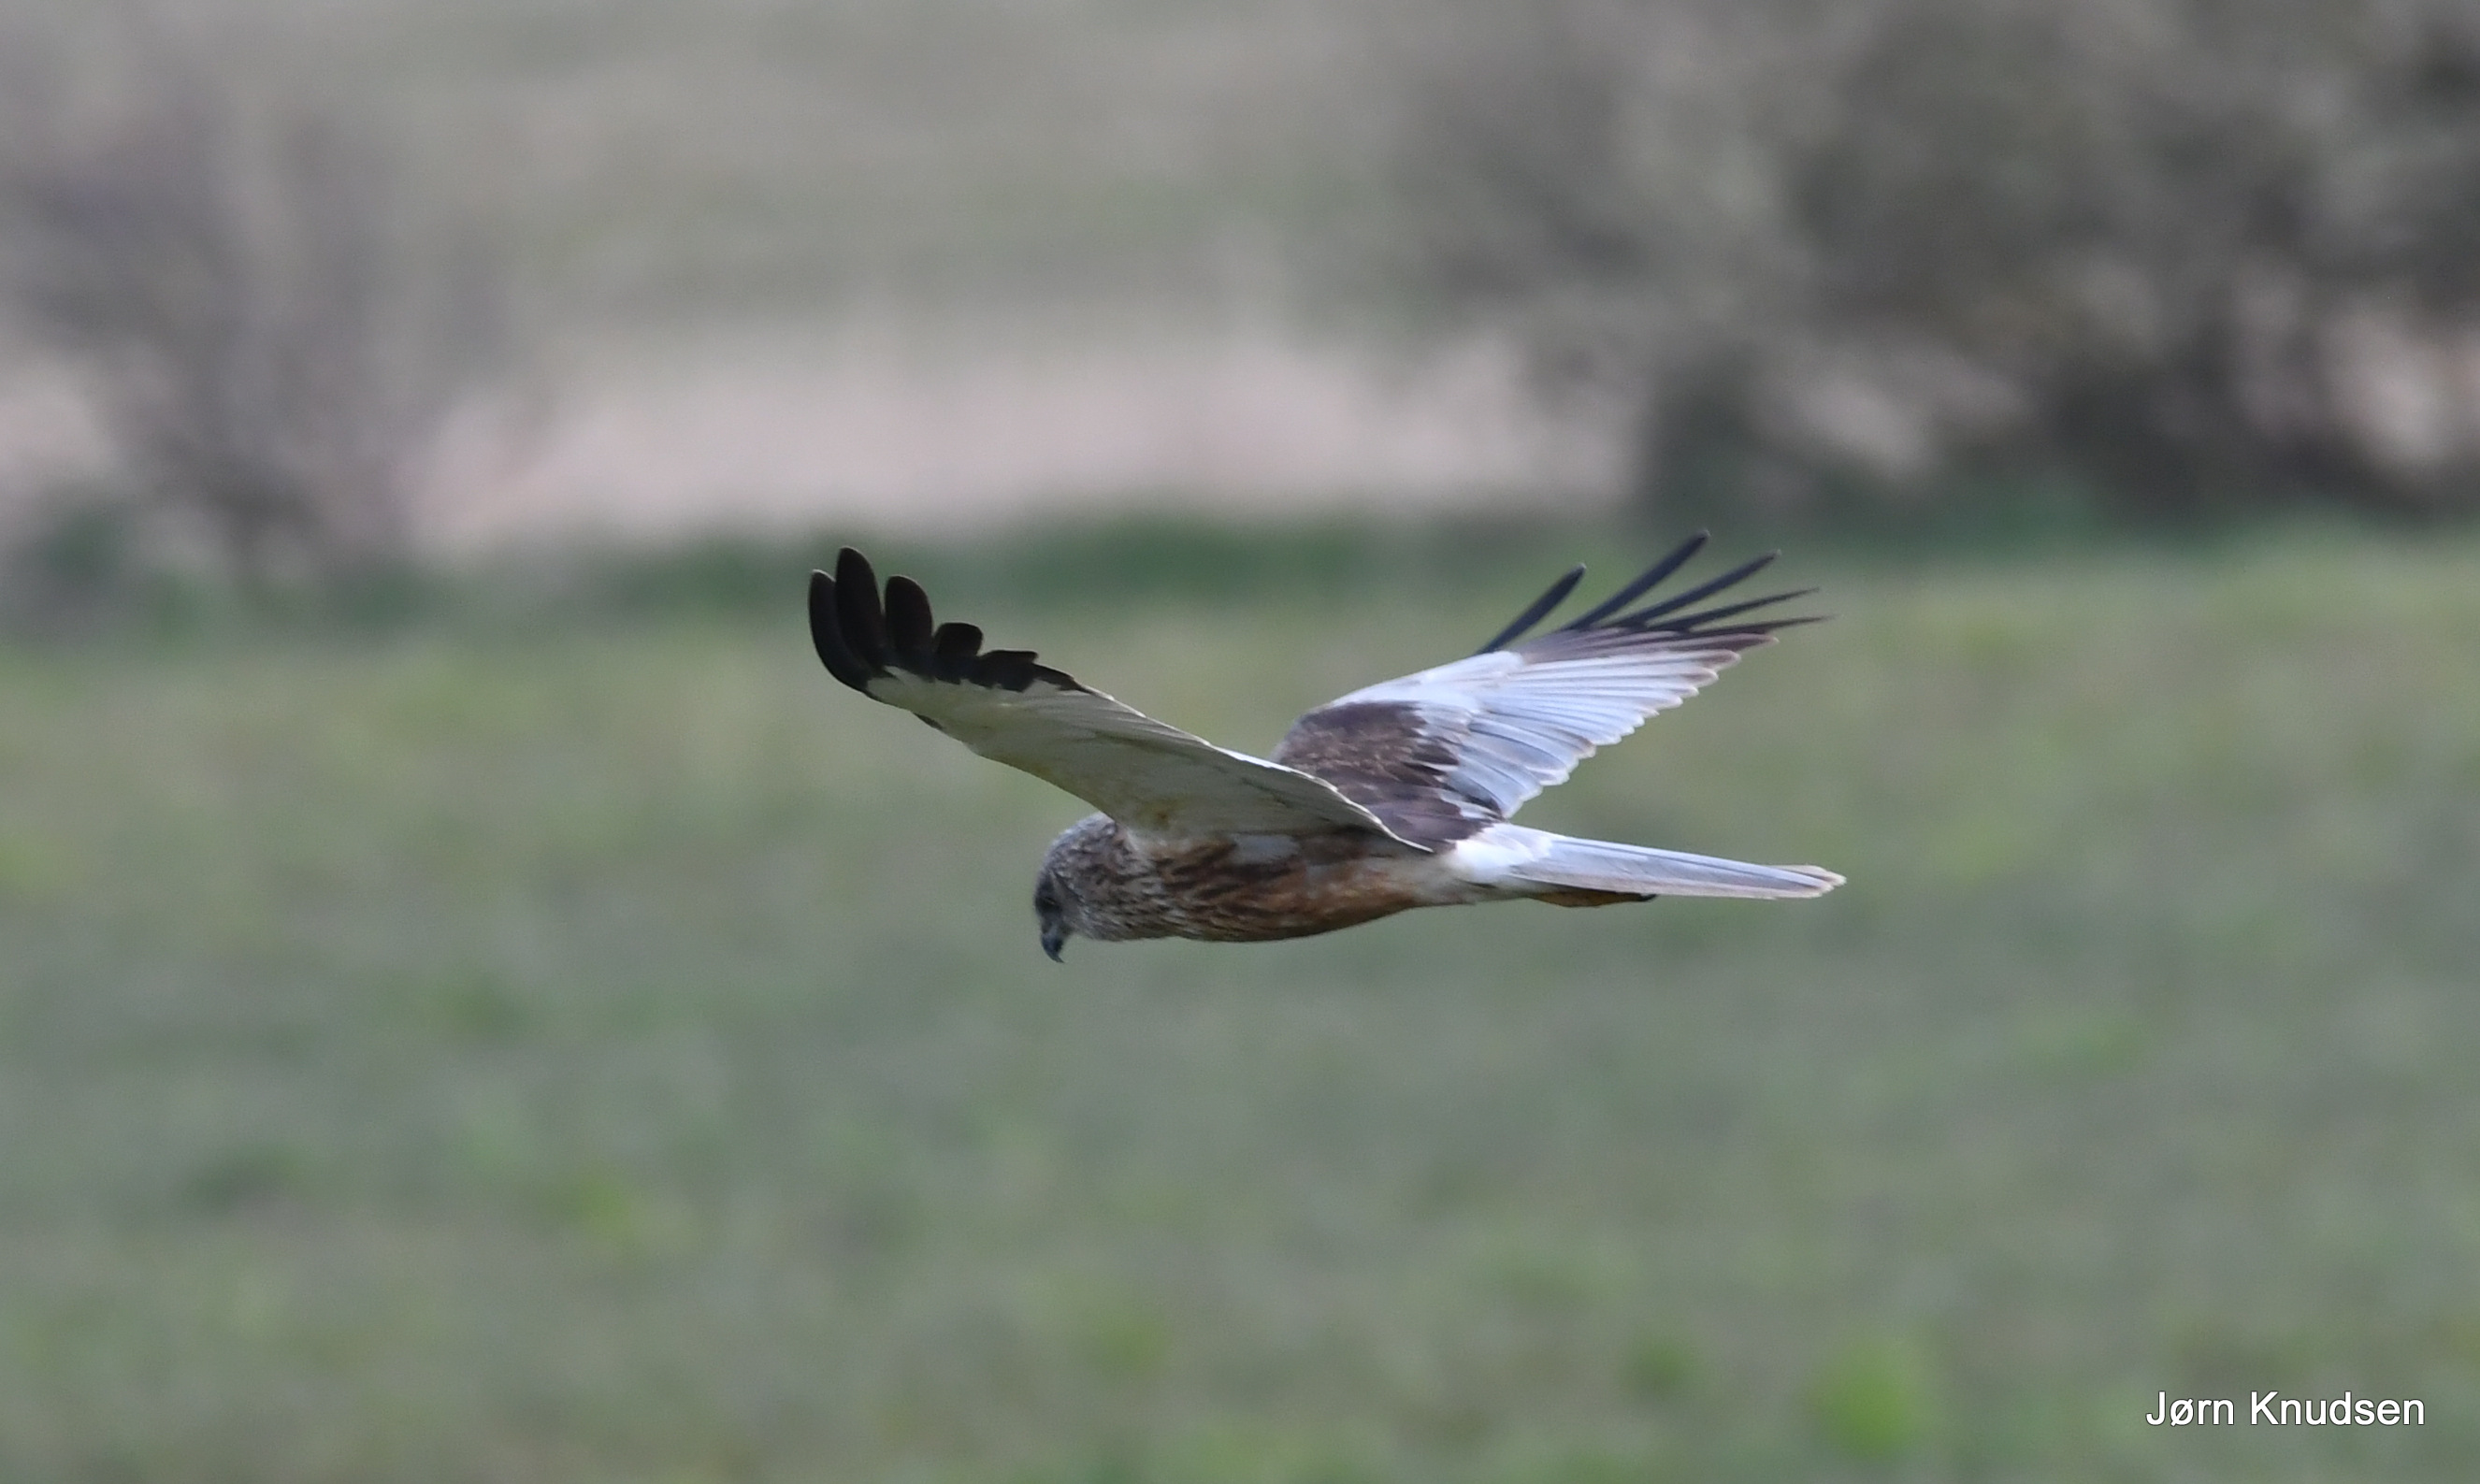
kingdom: Animalia
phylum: Chordata
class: Aves
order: Accipitriformes
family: Accipitridae
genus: Circus
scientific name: Circus aeruginosus
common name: Rørhøg
